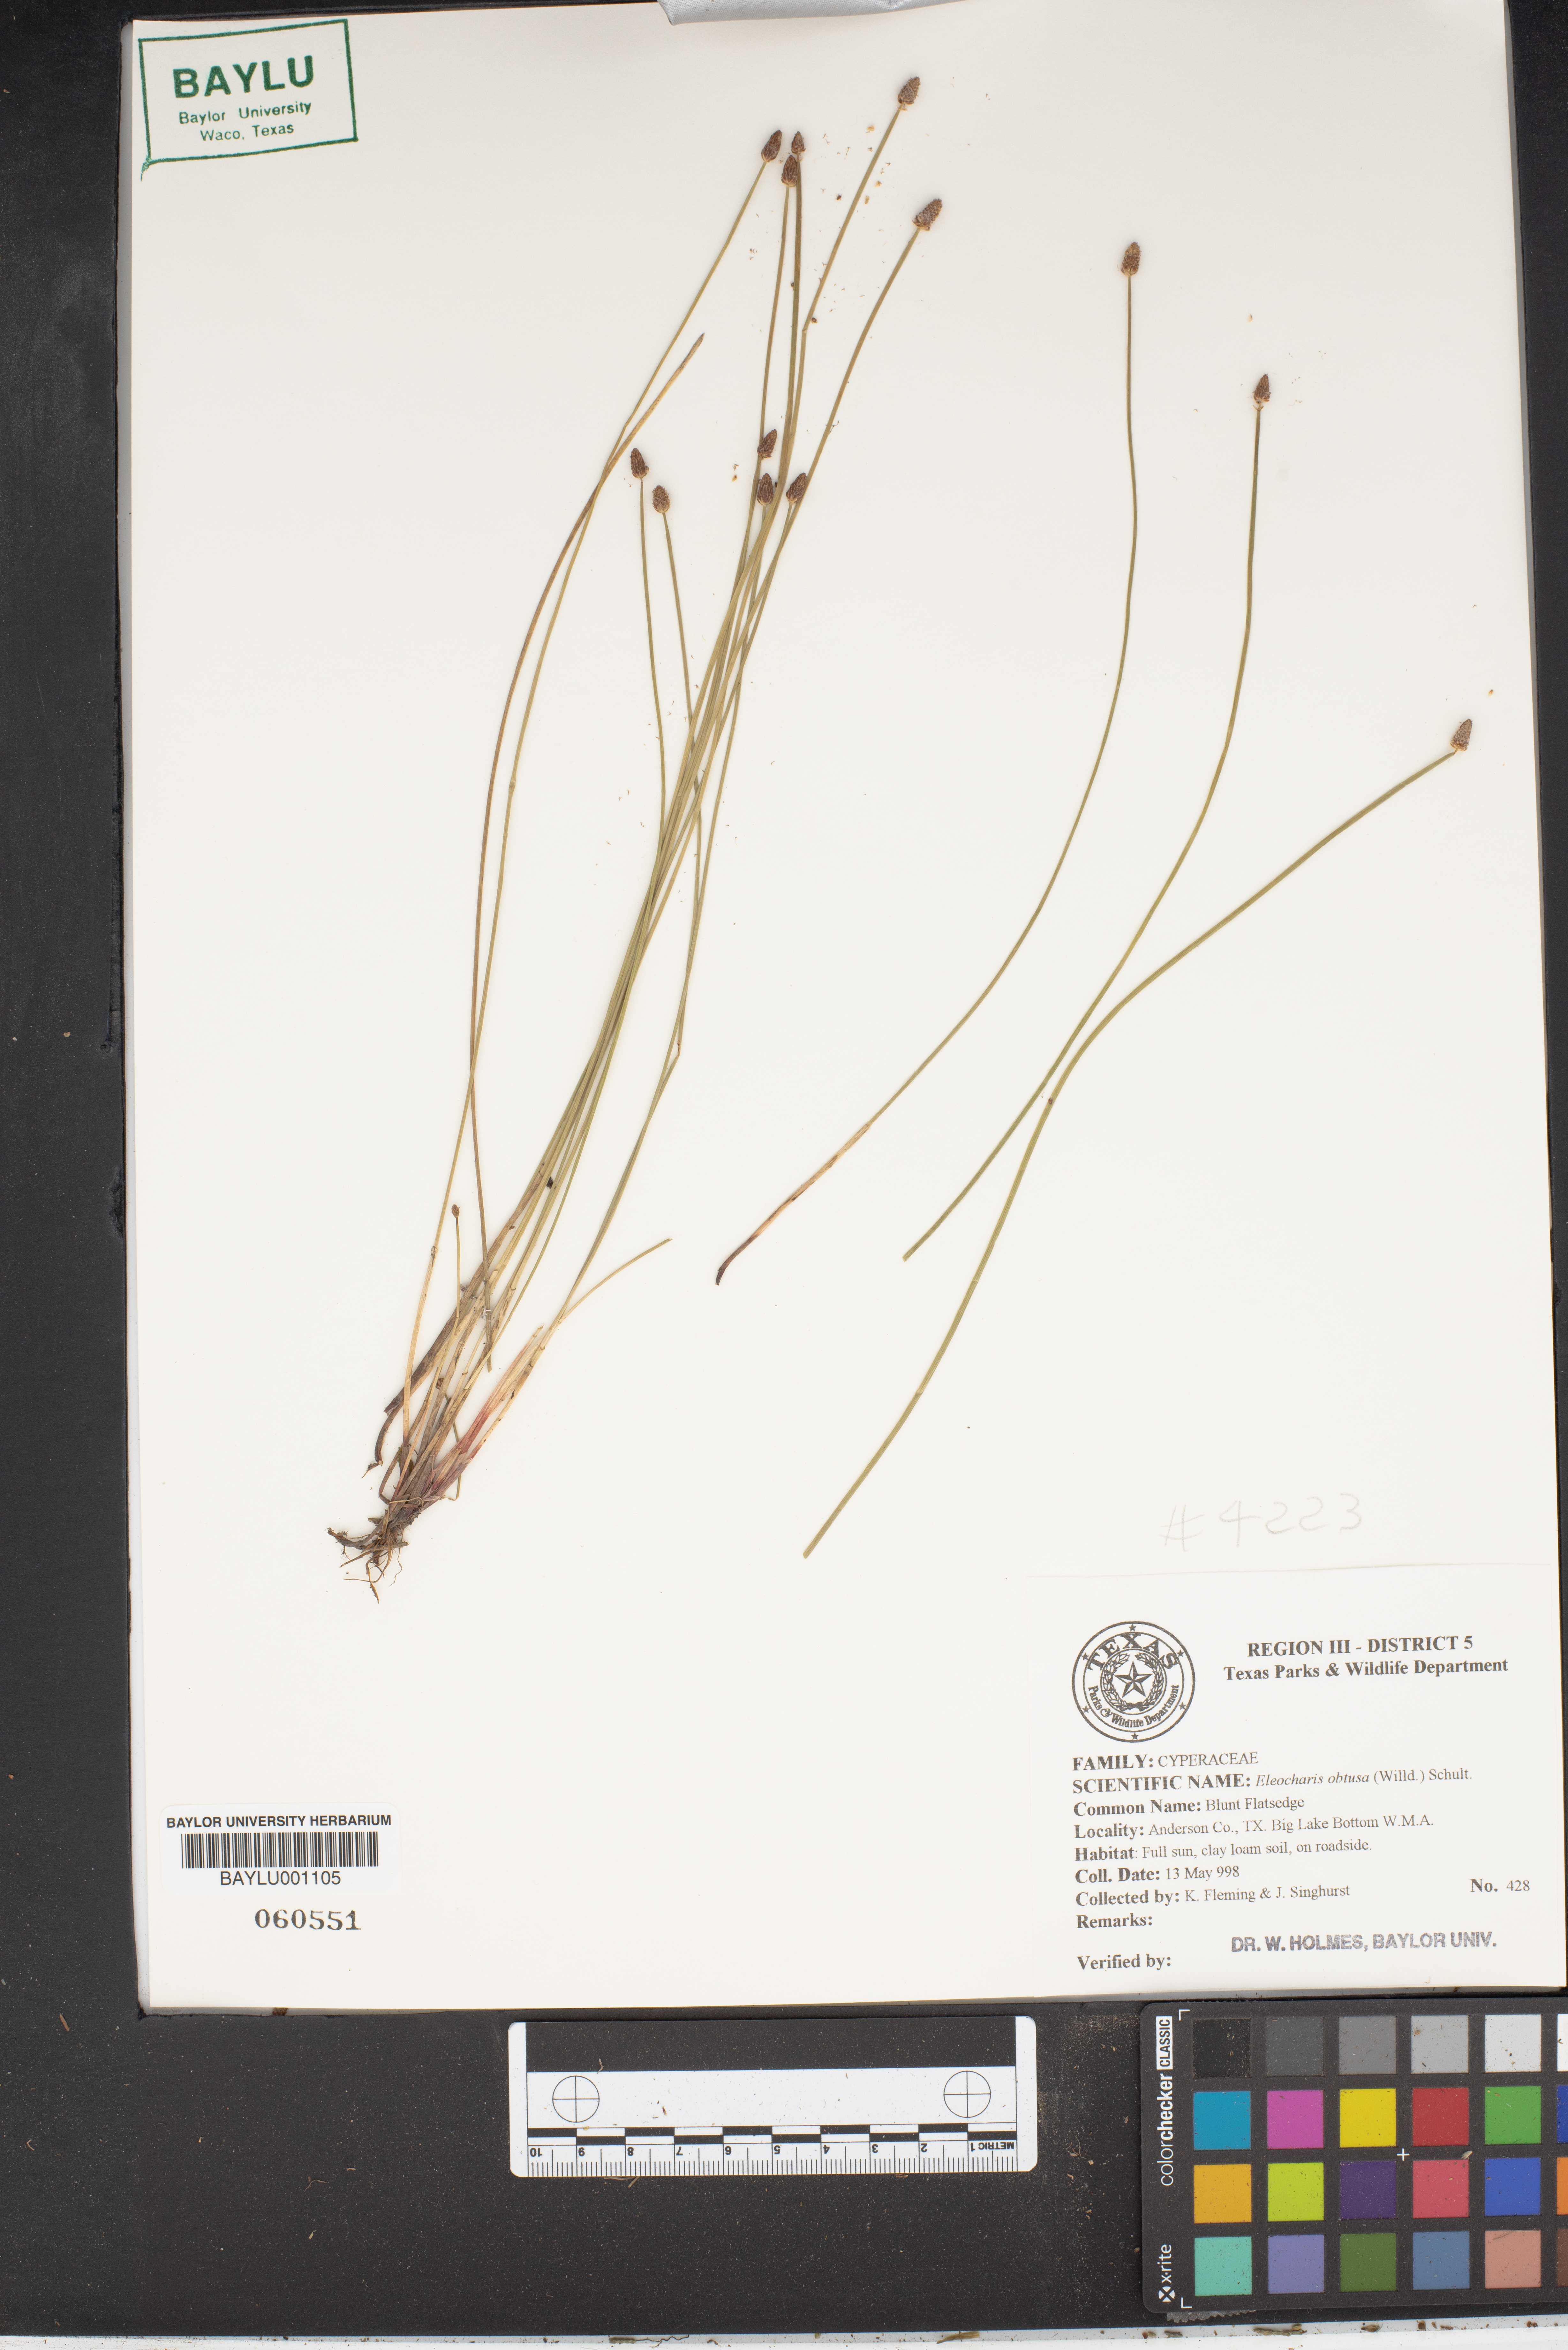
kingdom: Plantae
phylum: Tracheophyta
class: Liliopsida
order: Poales
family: Cyperaceae
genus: Eleocharis
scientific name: Eleocharis obtusa
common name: Blunt spikerush
